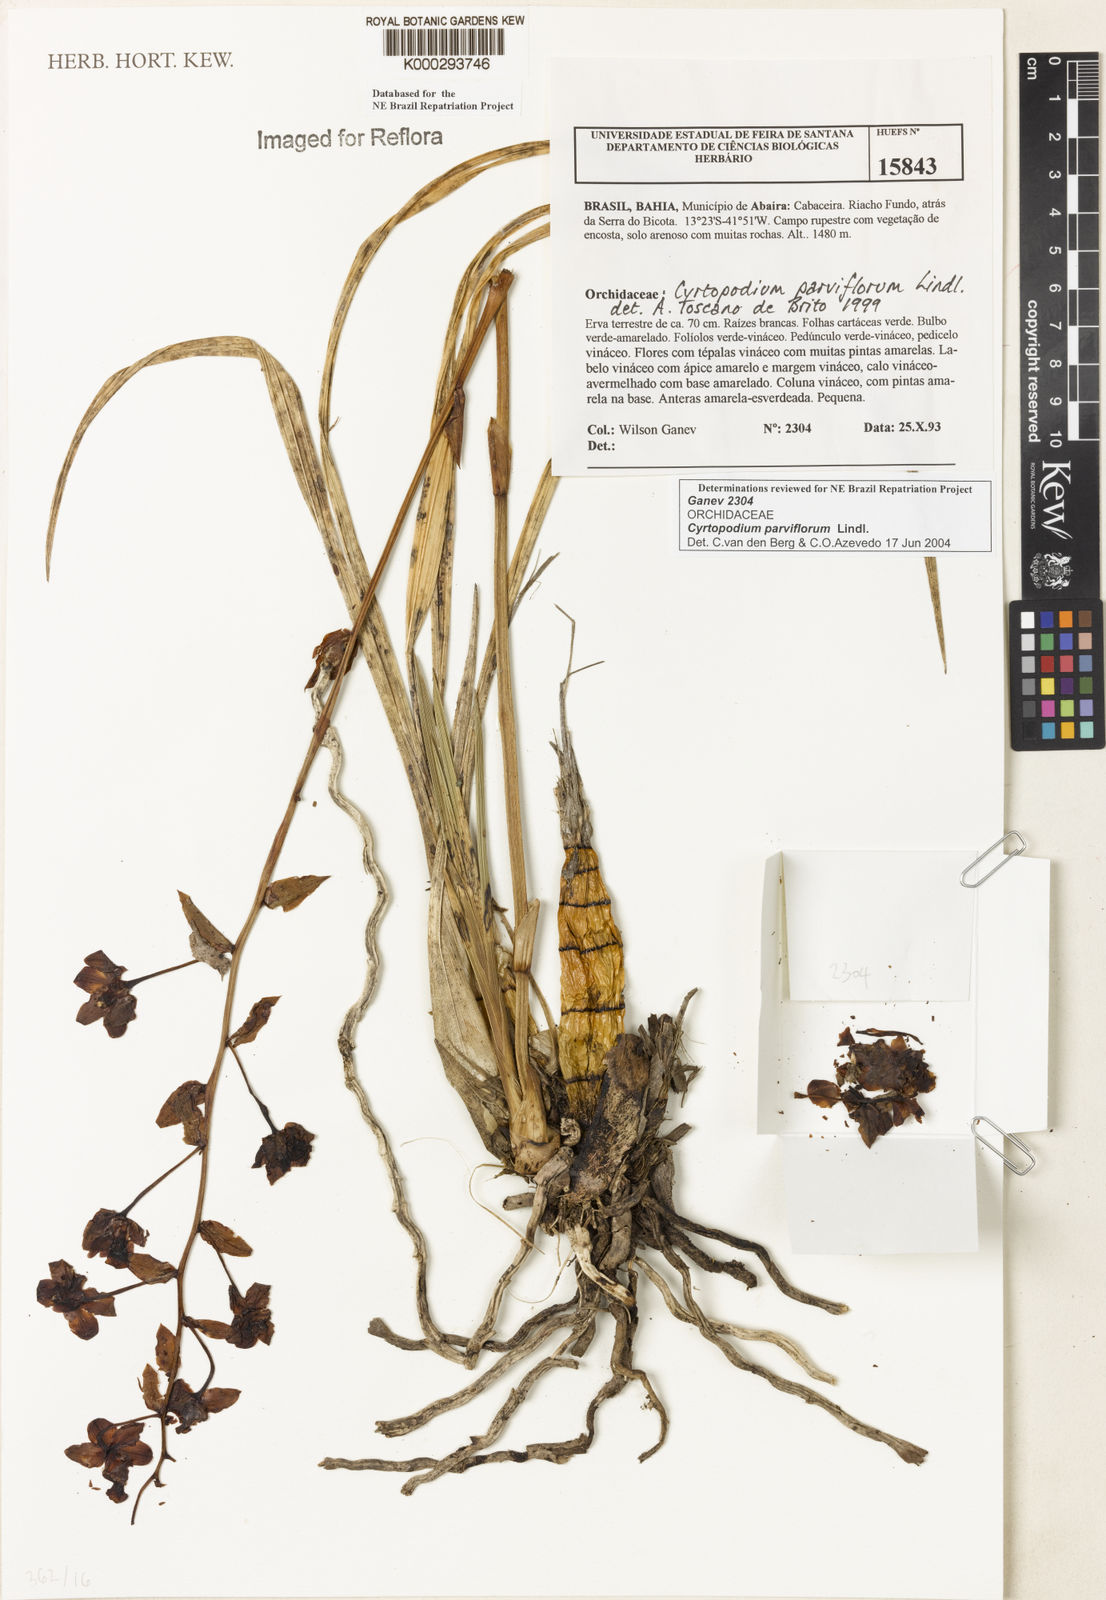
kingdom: Plantae
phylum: Tracheophyta
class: Liliopsida
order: Asparagales
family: Orchidaceae
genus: Cyrtopodium
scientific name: Cyrtopodium parviflorum
